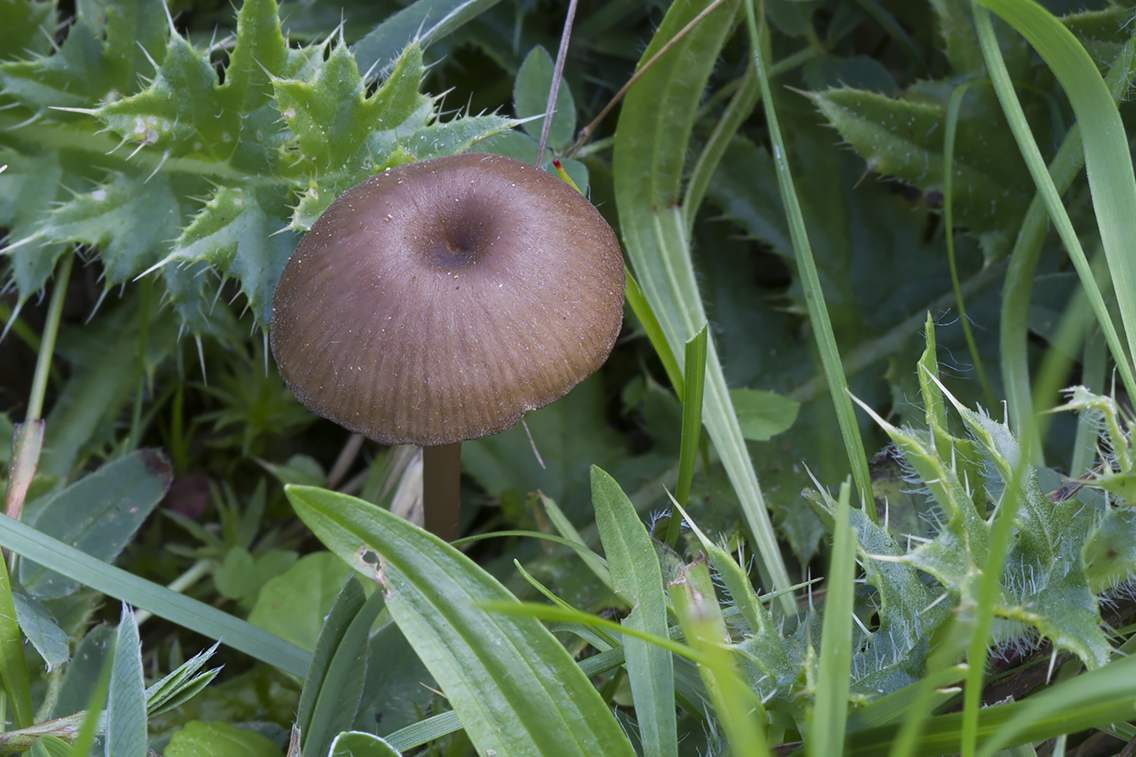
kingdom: Fungi
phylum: Basidiomycota
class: Agaricomycetes
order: Agaricales
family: Entolomataceae
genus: Entoloma
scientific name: Entoloma
